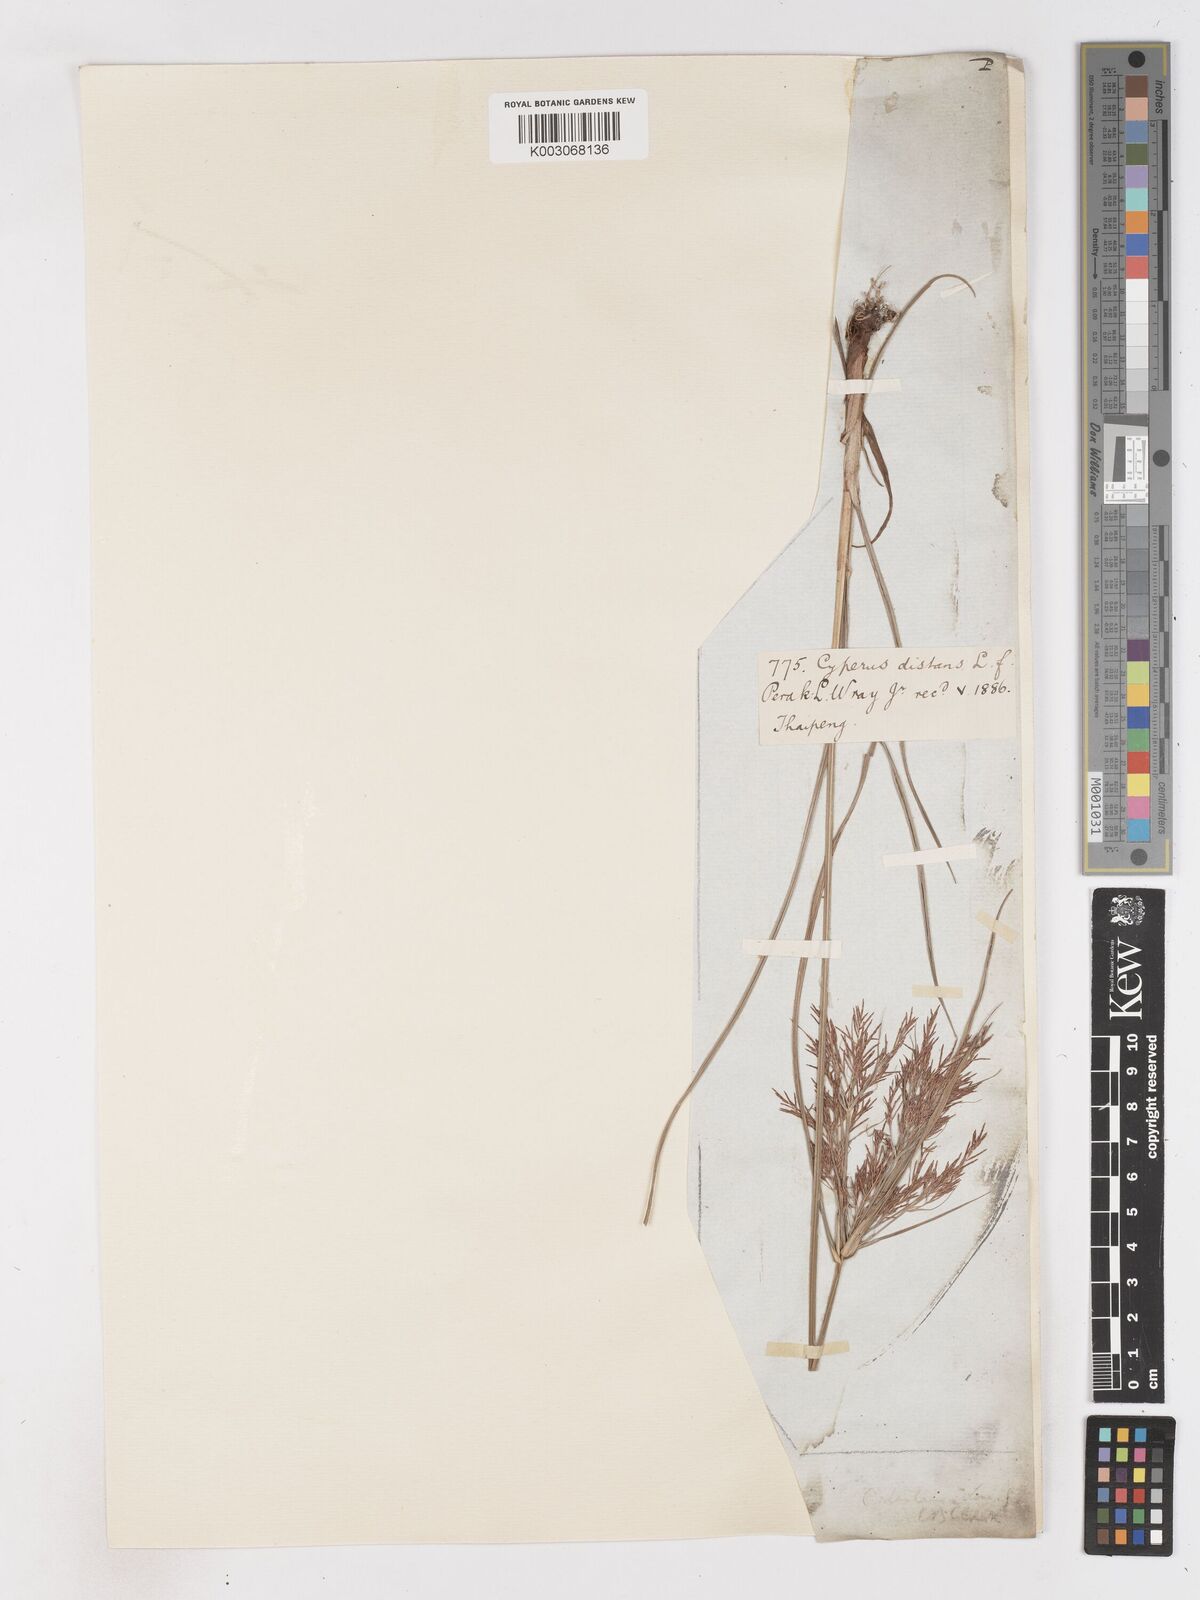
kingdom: Plantae
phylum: Tracheophyta
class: Liliopsida
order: Poales
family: Cyperaceae
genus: Cyperus
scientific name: Cyperus distans
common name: Slender cyperus
